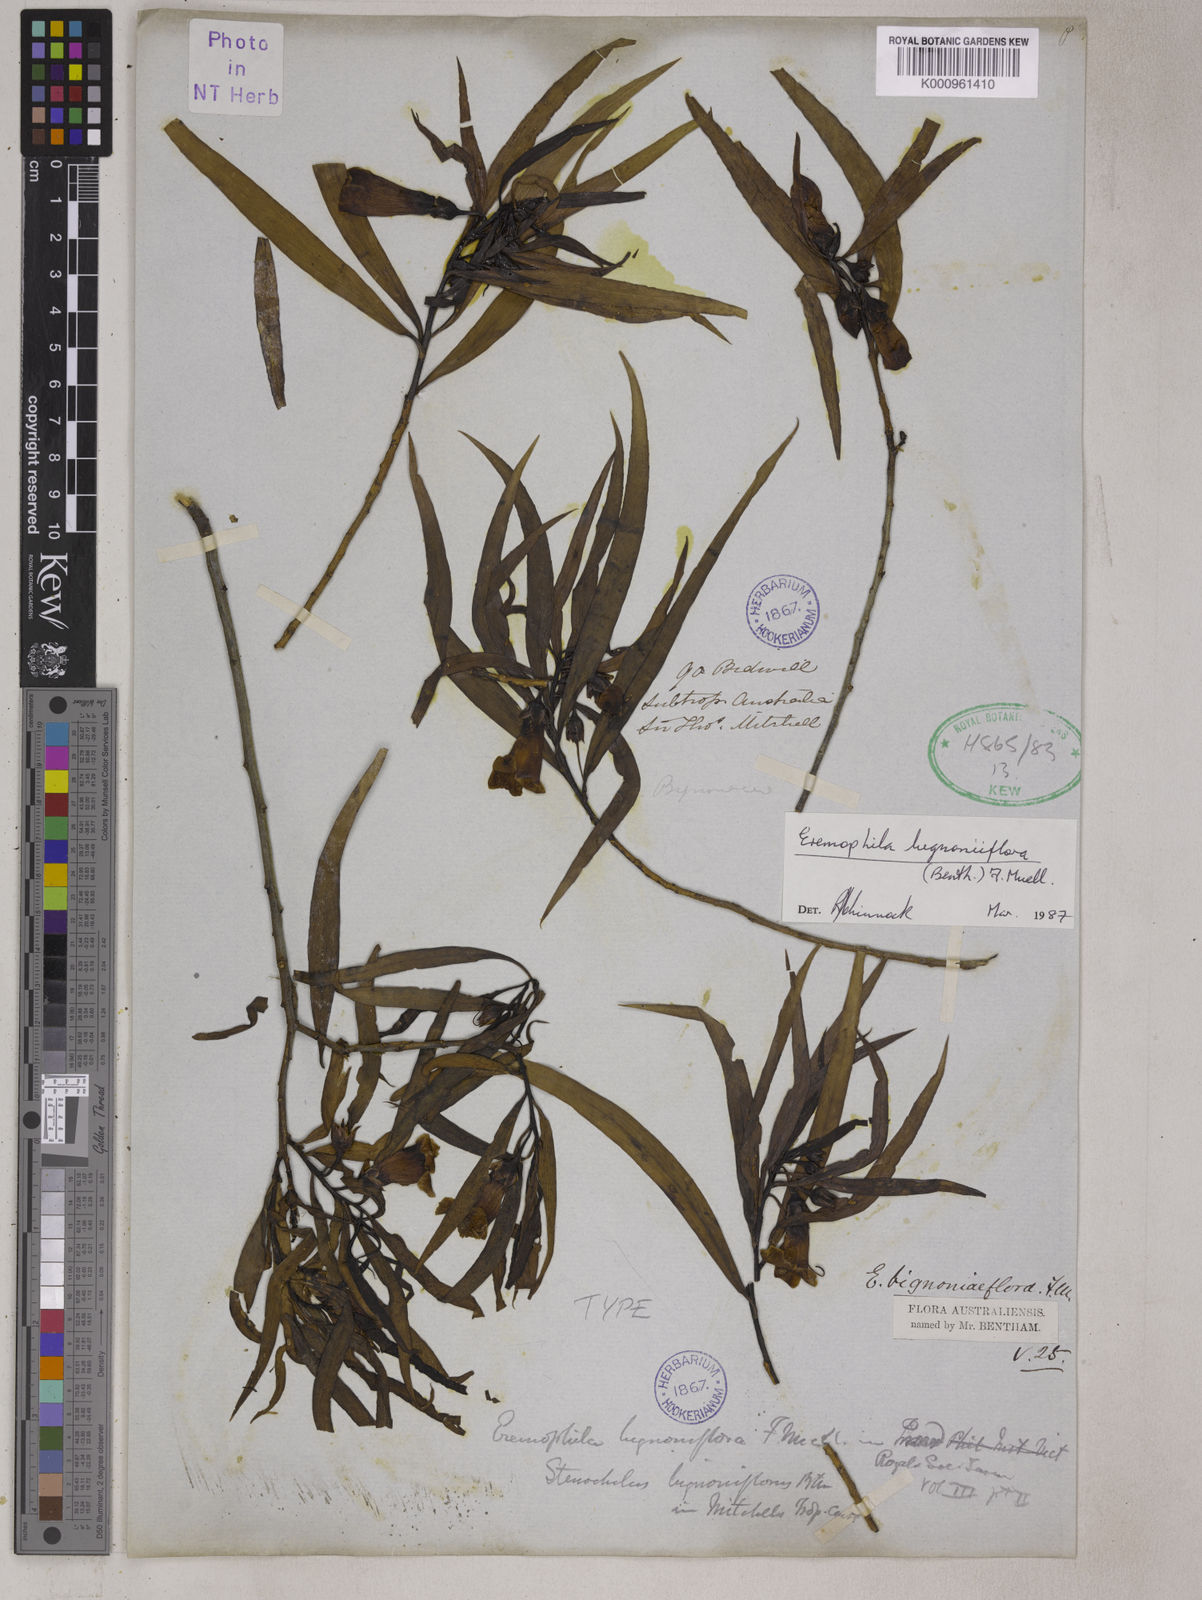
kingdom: Plantae
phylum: Tracheophyta
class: Magnoliopsida
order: Lamiales
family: Scrophulariaceae
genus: Eremophila
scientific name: Eremophila bignoniiflora
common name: Bignonia emu-bush
